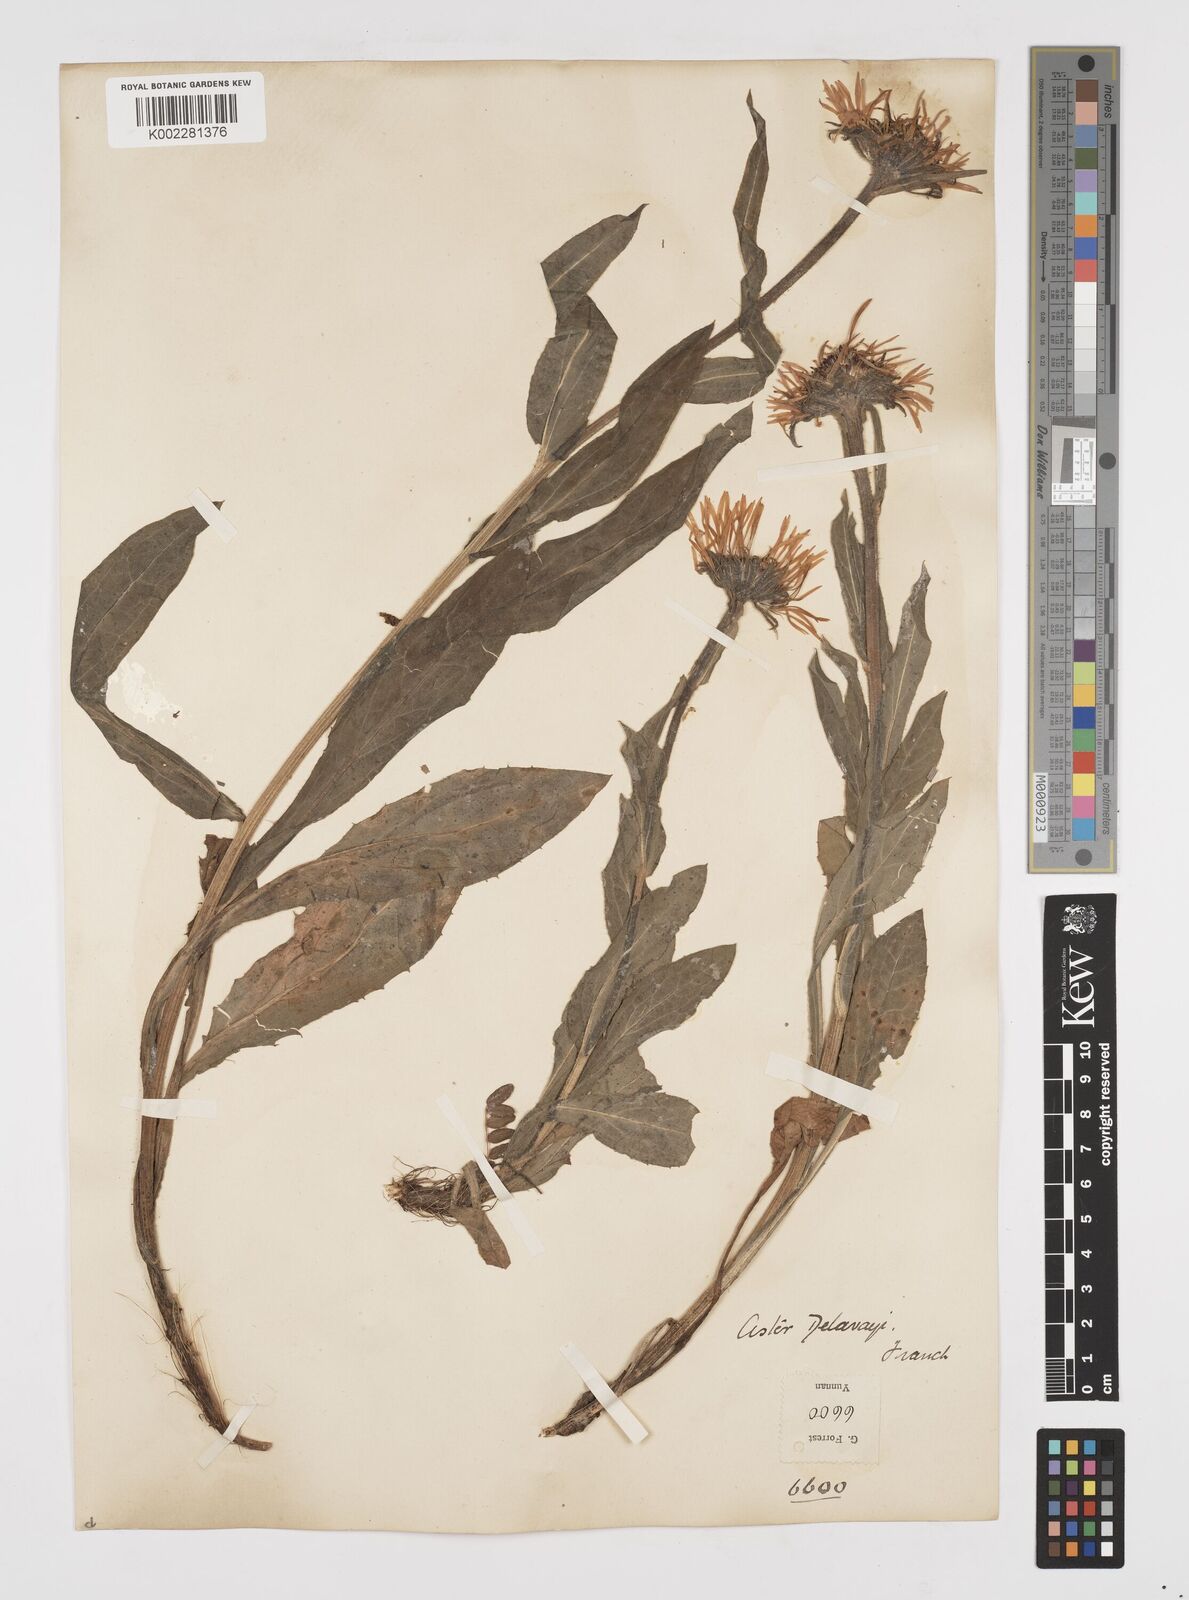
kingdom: Plantae
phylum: Tracheophyta
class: Magnoliopsida
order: Asterales
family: Asteraceae
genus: Tibetiodes
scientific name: Tibetiodes diplostephioides
